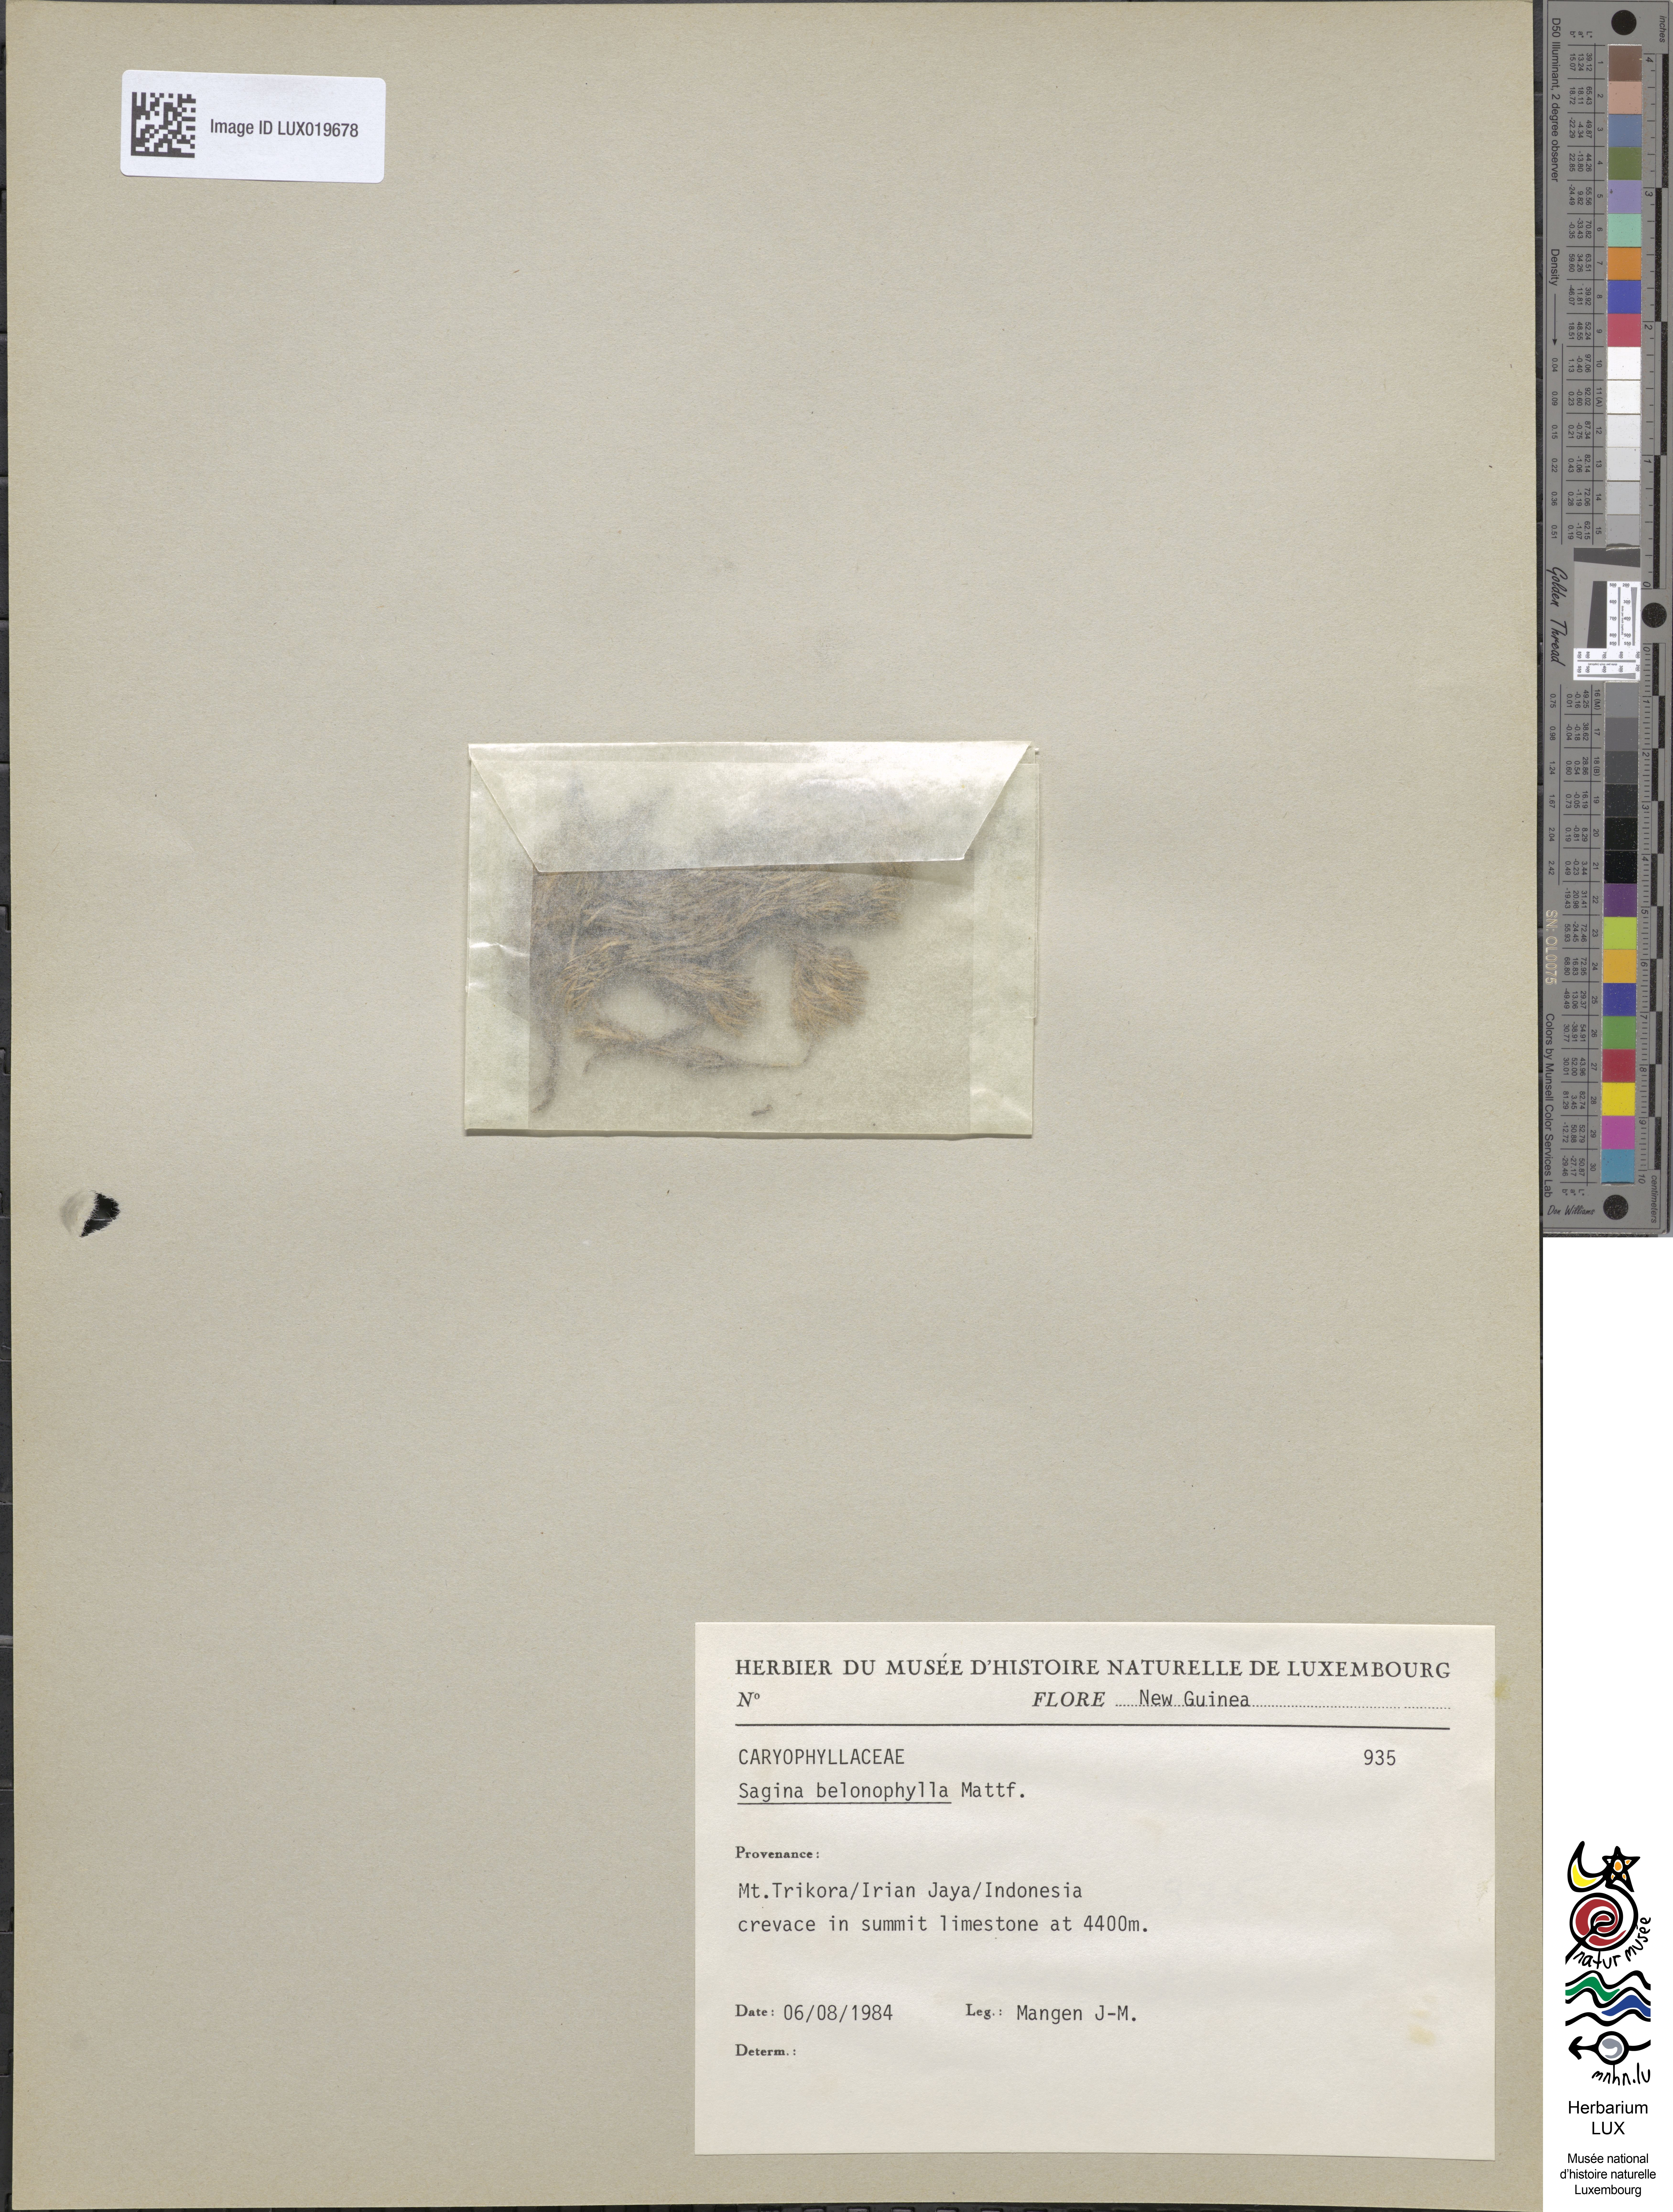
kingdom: Plantae
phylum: Tracheophyta
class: Magnoliopsida
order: Caryophyllales
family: Caryophyllaceae
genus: Sagina
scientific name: Sagina belonophylla
